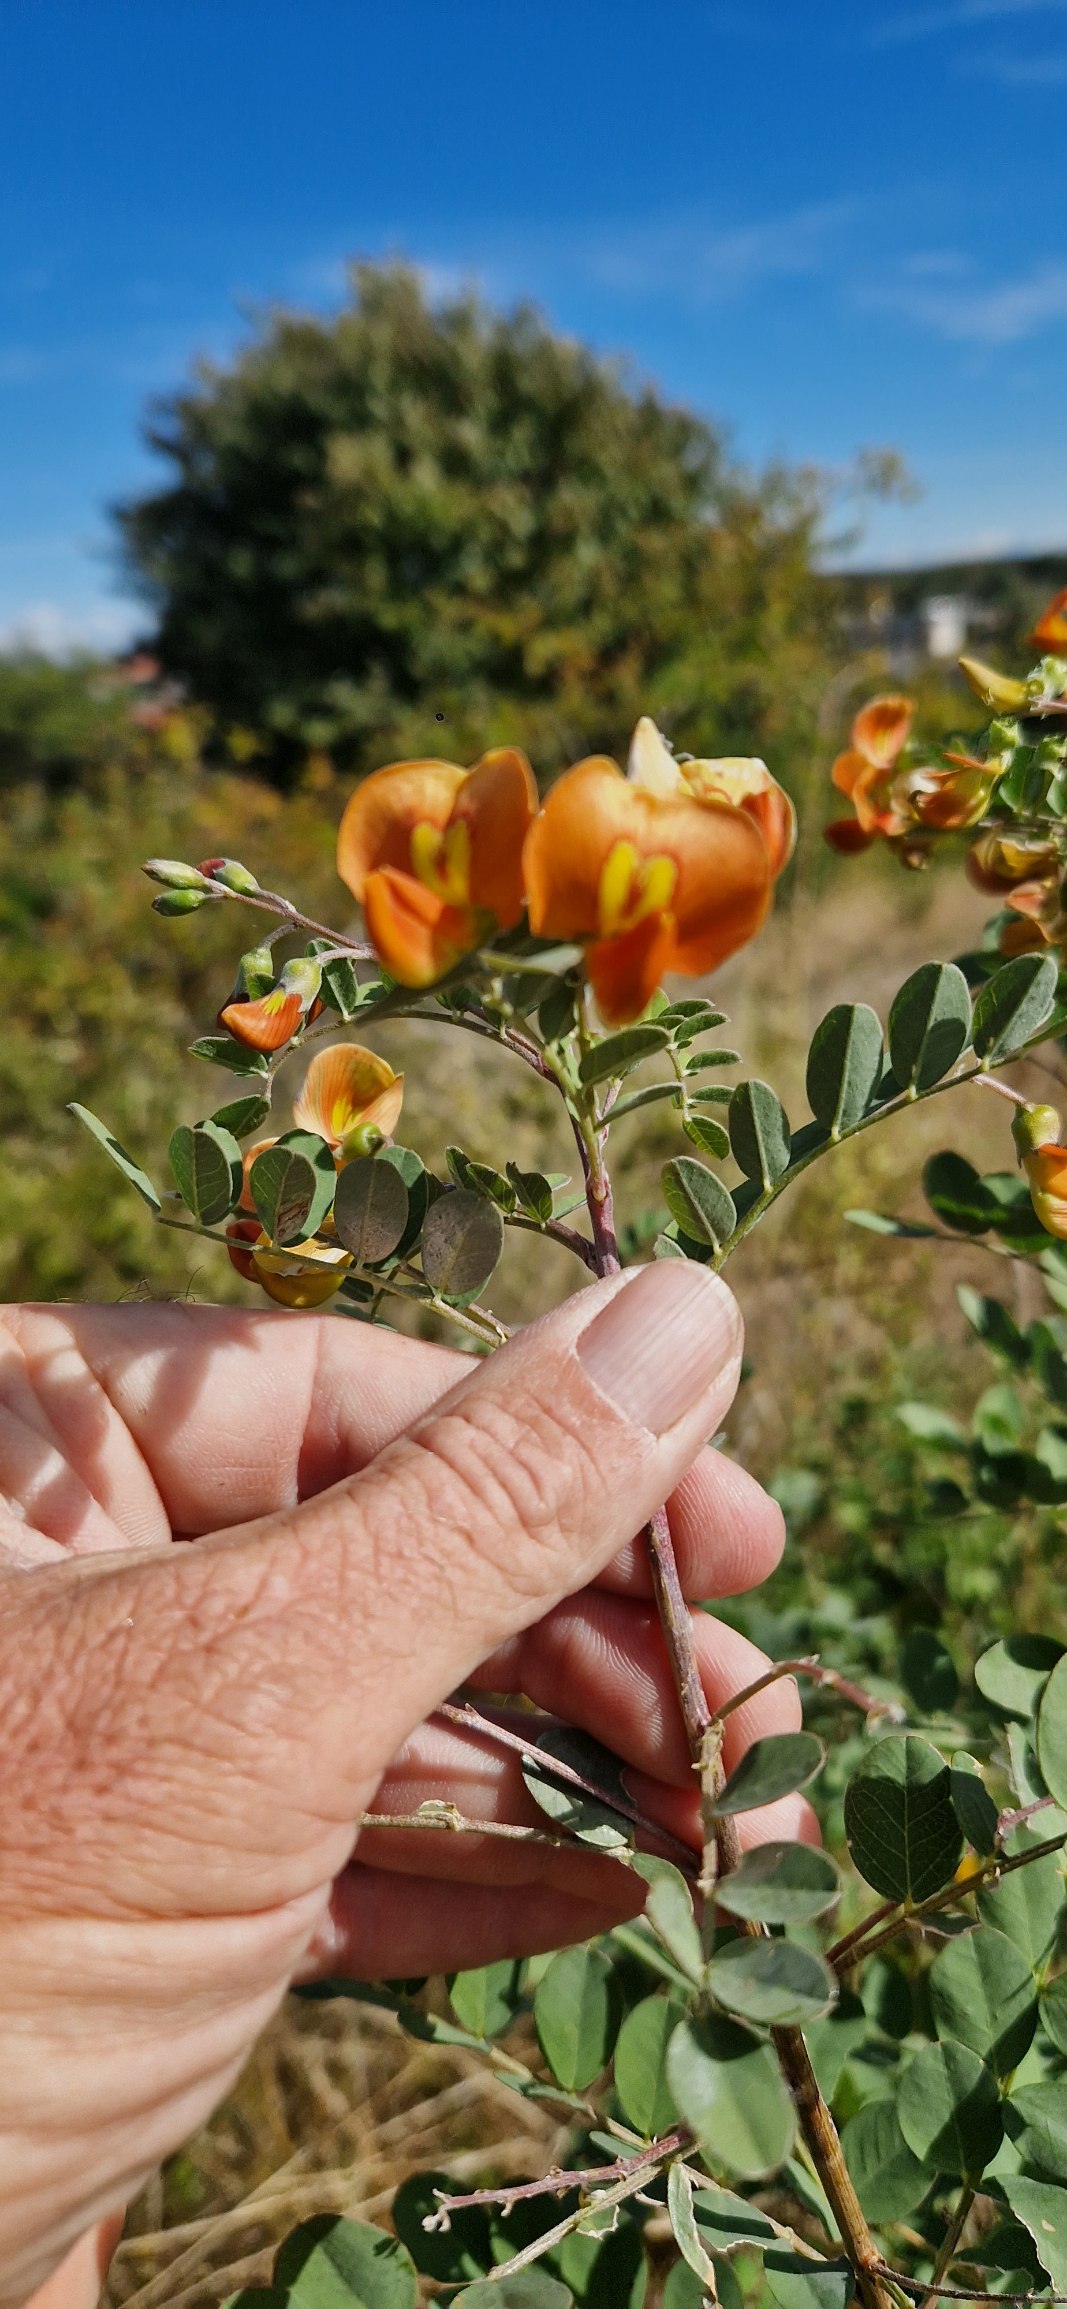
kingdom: Plantae
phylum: Tracheophyta
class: Magnoliopsida
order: Fabales
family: Fabaceae
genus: Colutea
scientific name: Colutea media
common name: Orange blærebælg
